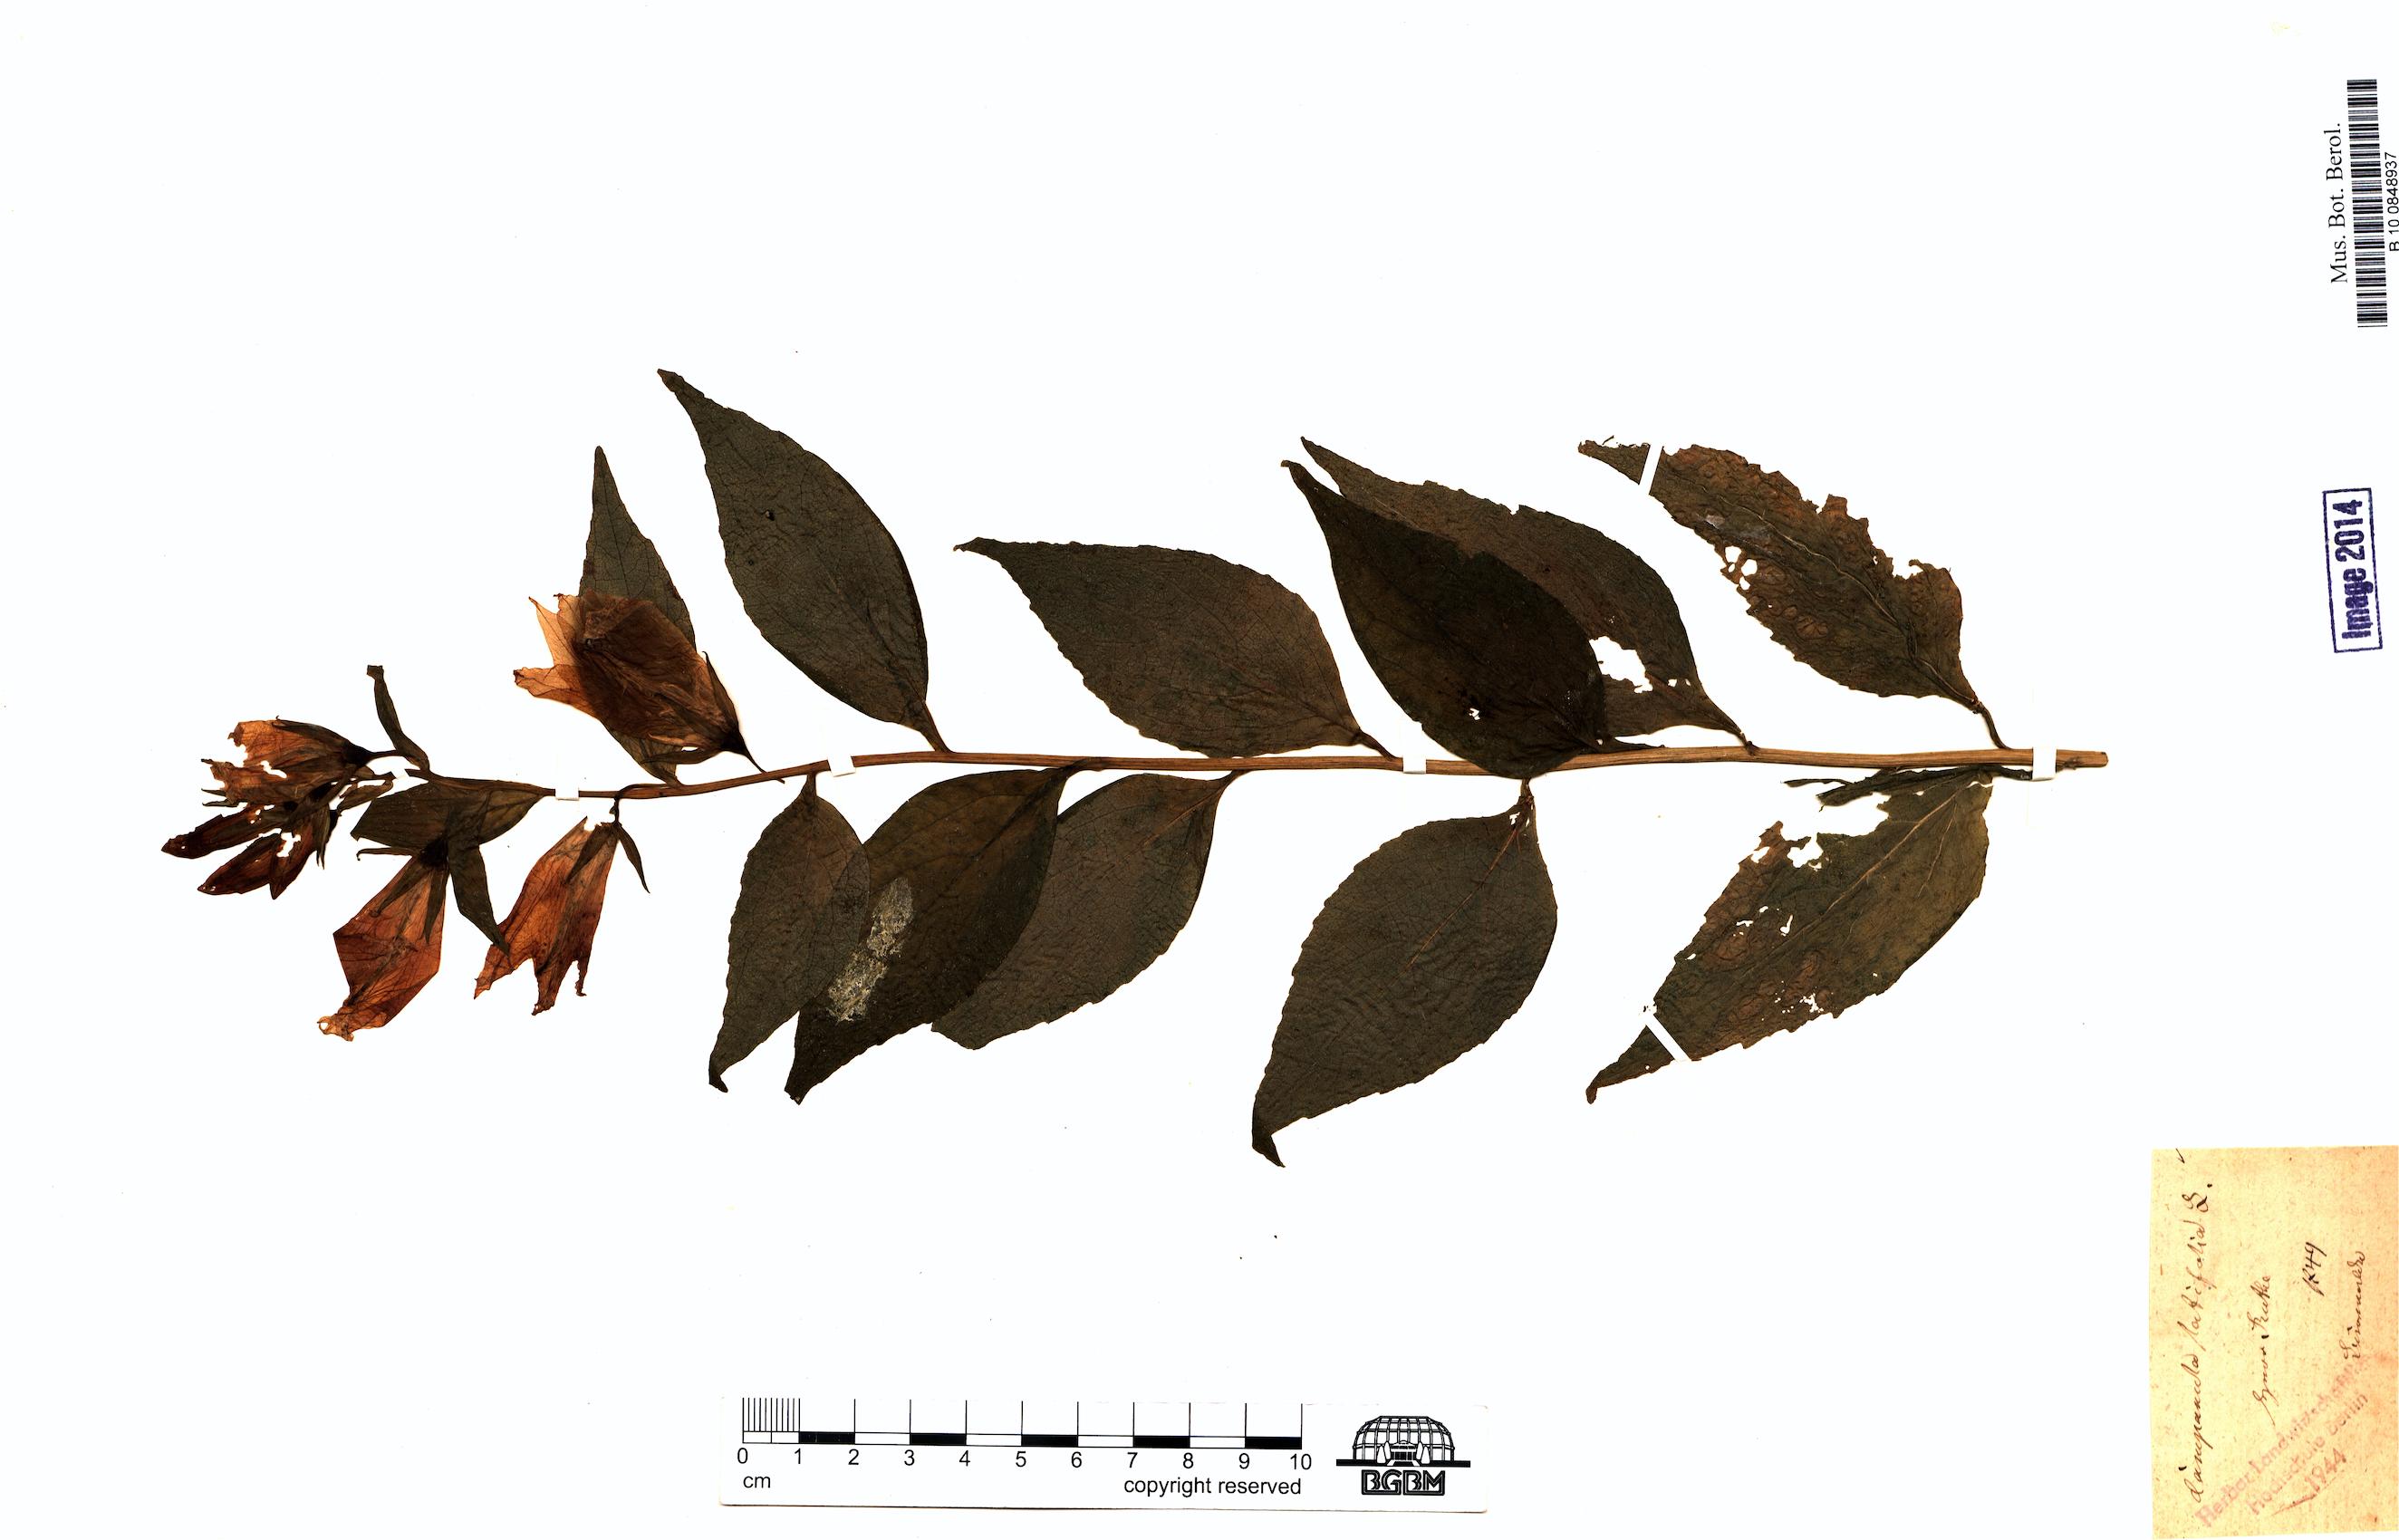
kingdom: Plantae
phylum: Tracheophyta
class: Magnoliopsida
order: Asterales
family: Campanulaceae
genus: Campanula
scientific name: Campanula latifolia
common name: Giant bellflower
